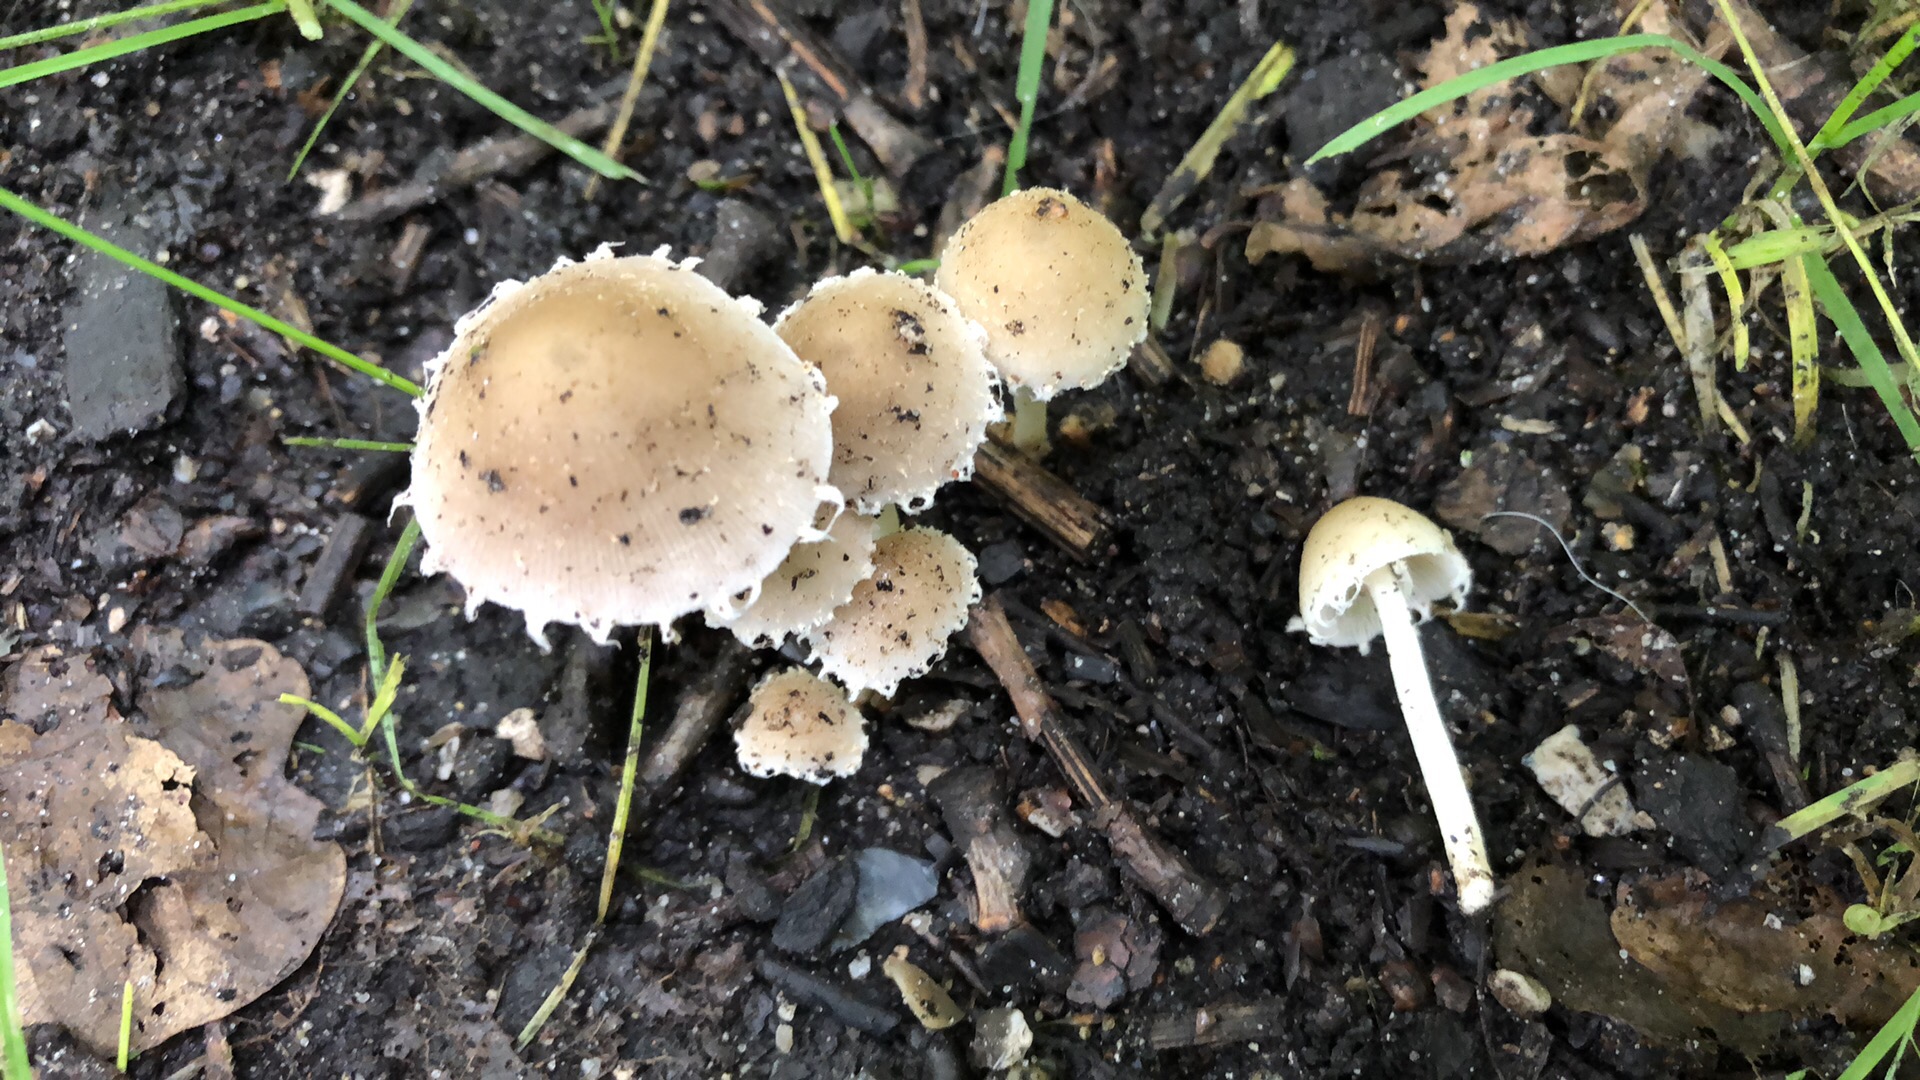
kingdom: Fungi
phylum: Basidiomycota
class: Agaricomycetes
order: Agaricales
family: Psathyrellaceae
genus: Candolleomyces
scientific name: Candolleomyces candolleanus
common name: Candolles mørkhat
